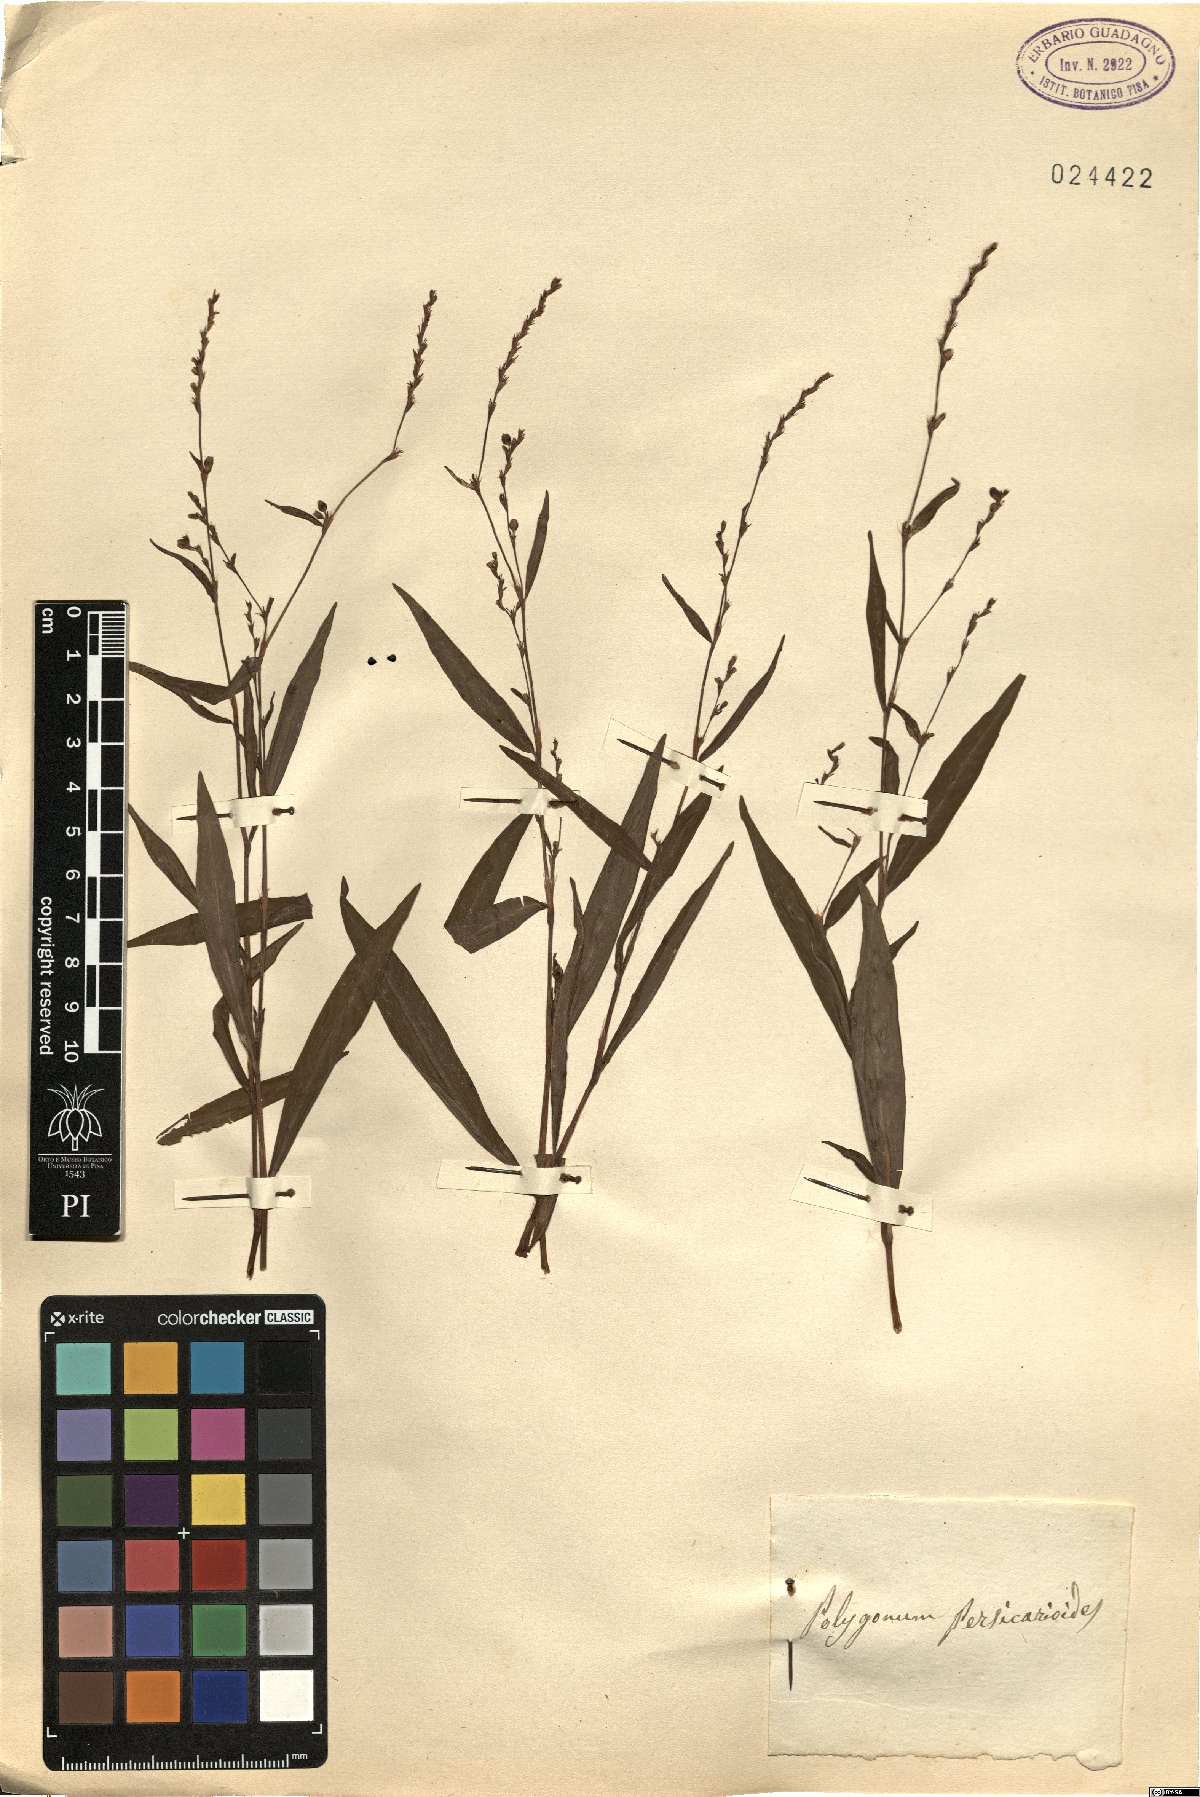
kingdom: Plantae
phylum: Tracheophyta
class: Magnoliopsida
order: Caryophyllales
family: Polygonaceae
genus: Persicaria
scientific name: Persicaria hydropiperoides
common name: Swamp smartweed
